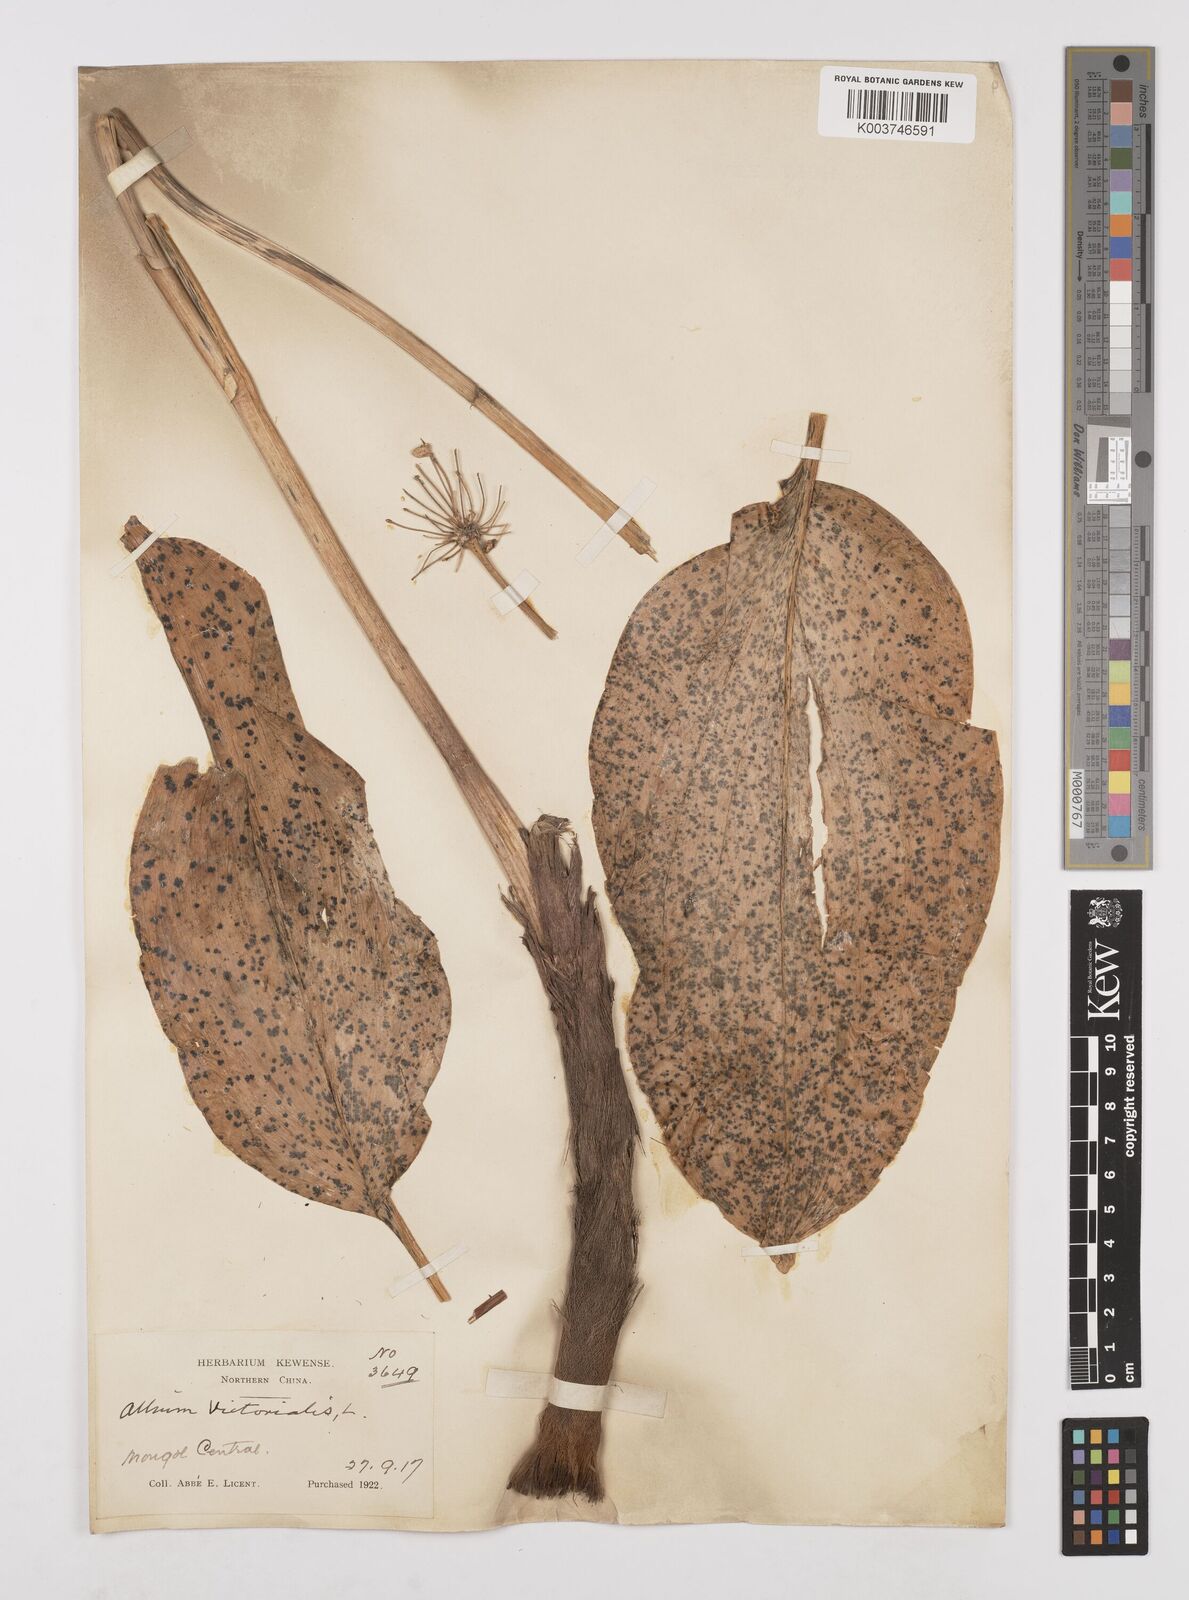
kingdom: Plantae
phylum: Tracheophyta
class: Liliopsida
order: Asparagales
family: Amaryllidaceae
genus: Allium
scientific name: Allium victorialis
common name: Alpine leek
